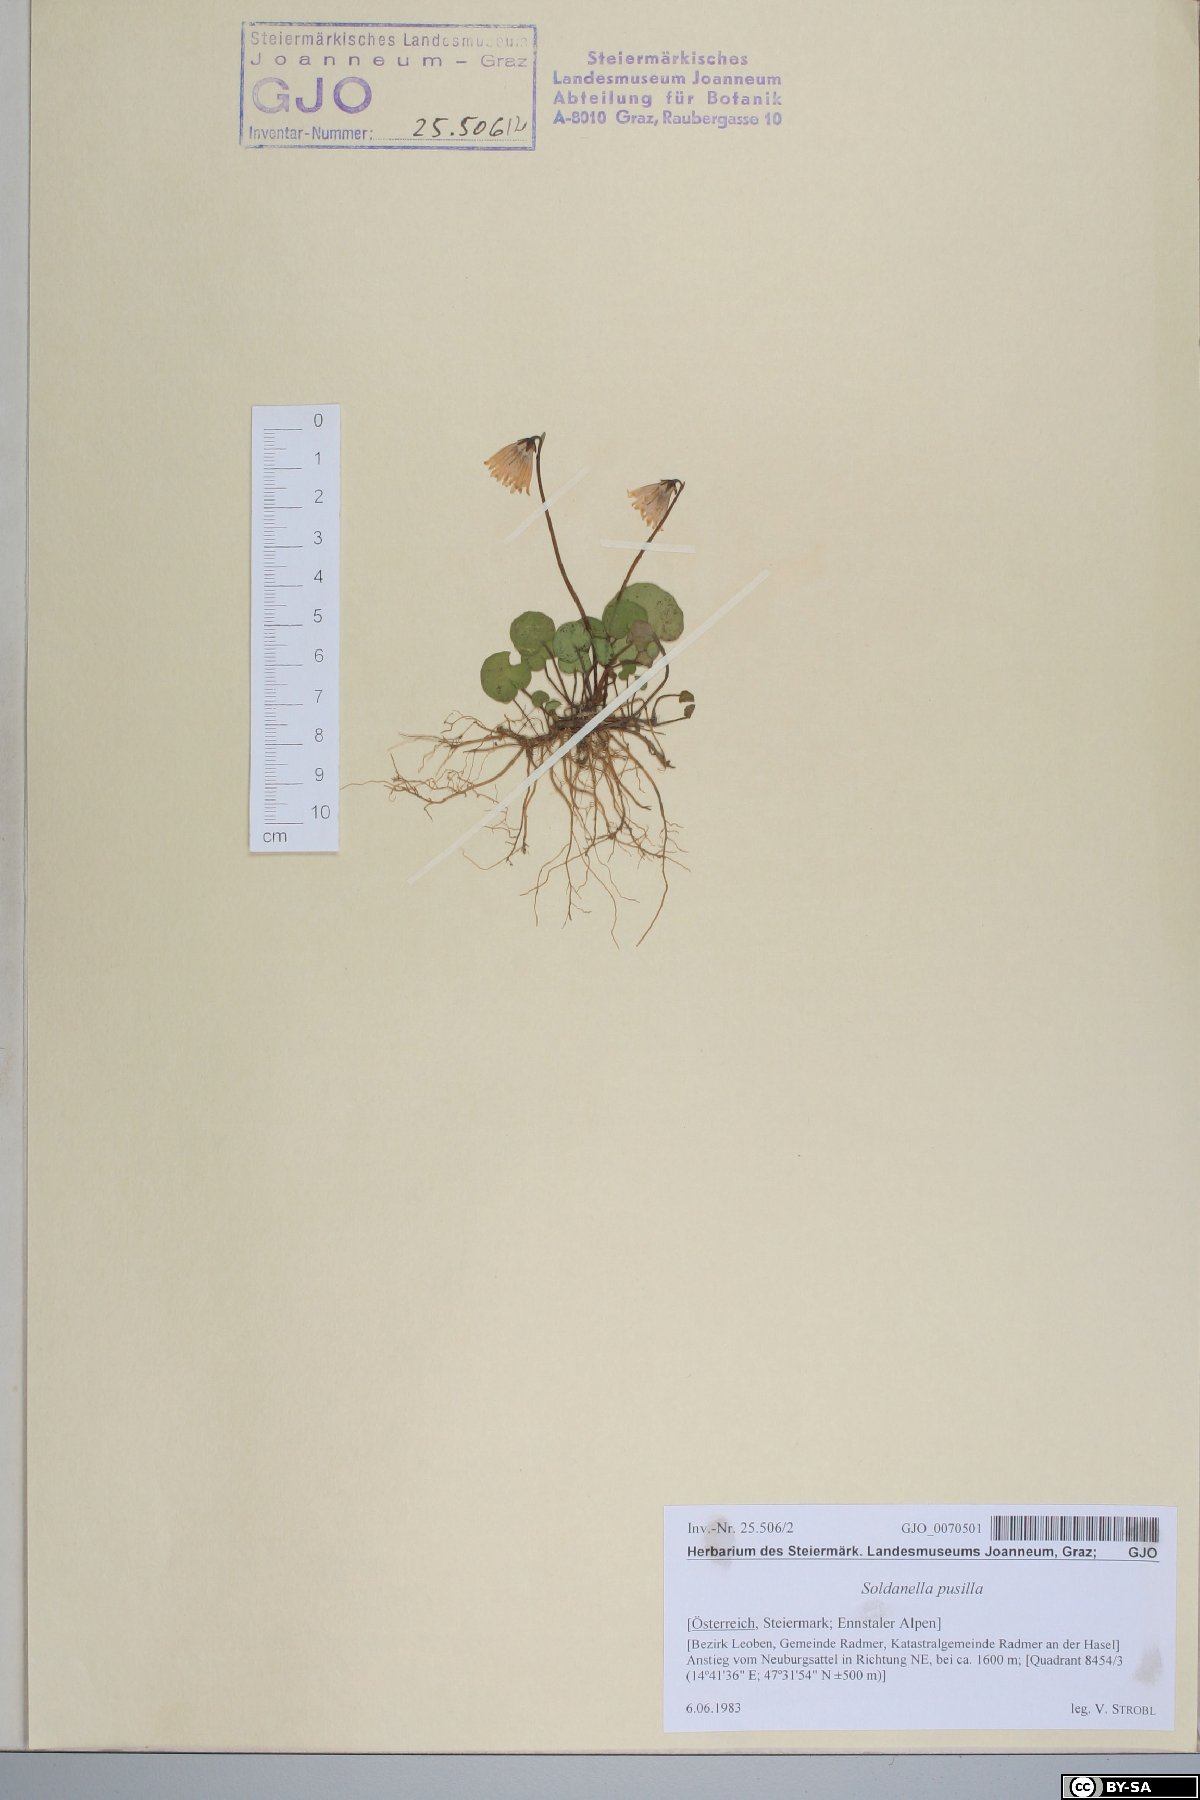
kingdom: Plantae
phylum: Tracheophyta
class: Magnoliopsida
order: Ericales
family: Primulaceae
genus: Soldanella
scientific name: Soldanella pusilla
